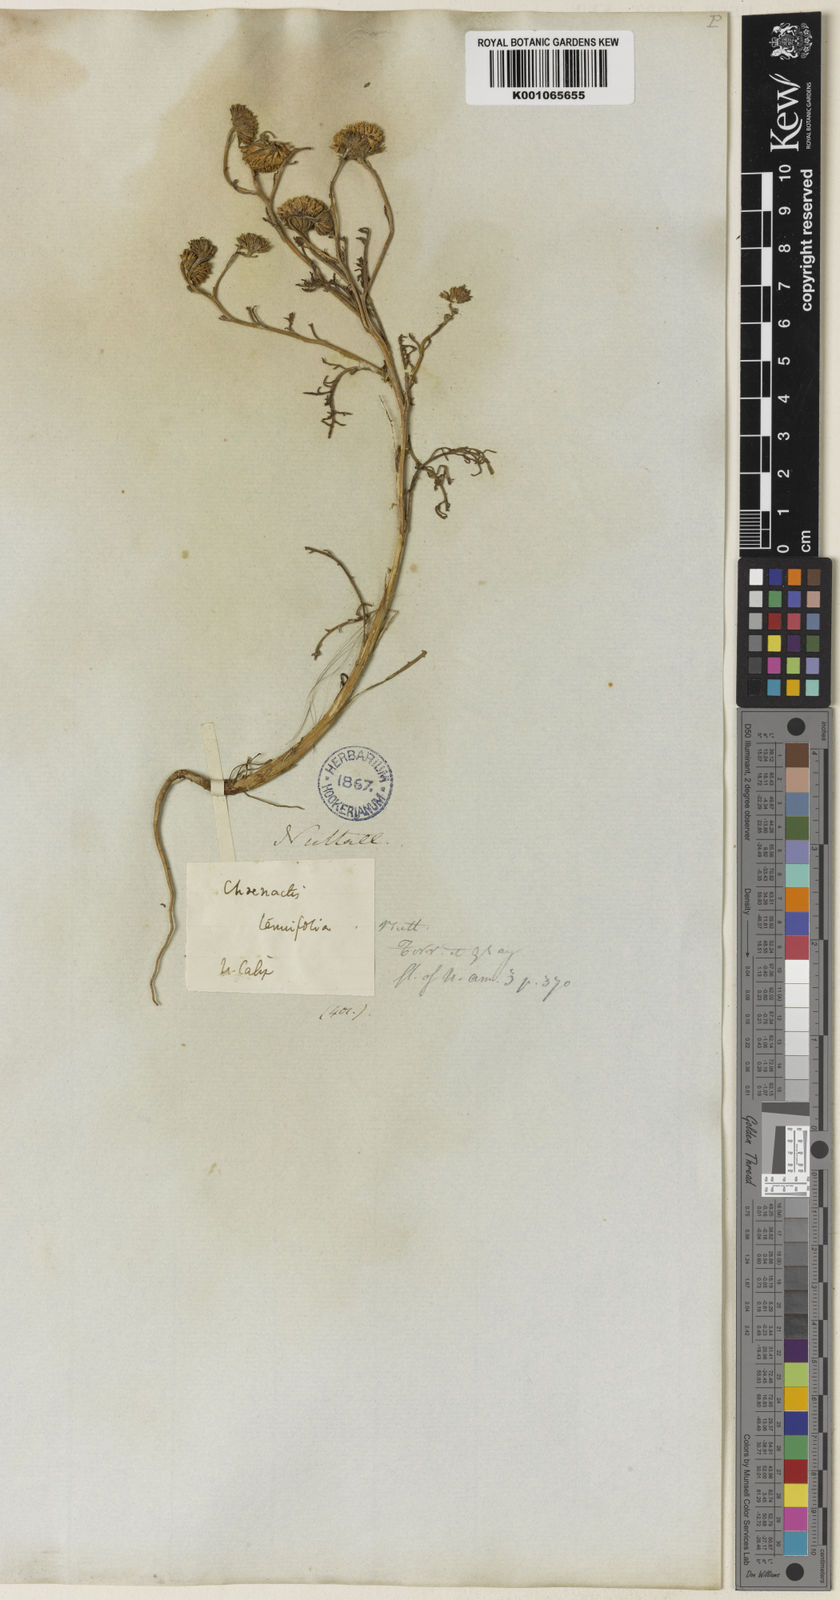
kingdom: Plantae
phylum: Tracheophyta
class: Magnoliopsida
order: Asterales
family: Asteraceae
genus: Chaenactis
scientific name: Chaenactis glabriuscula
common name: Yellow pincushion
